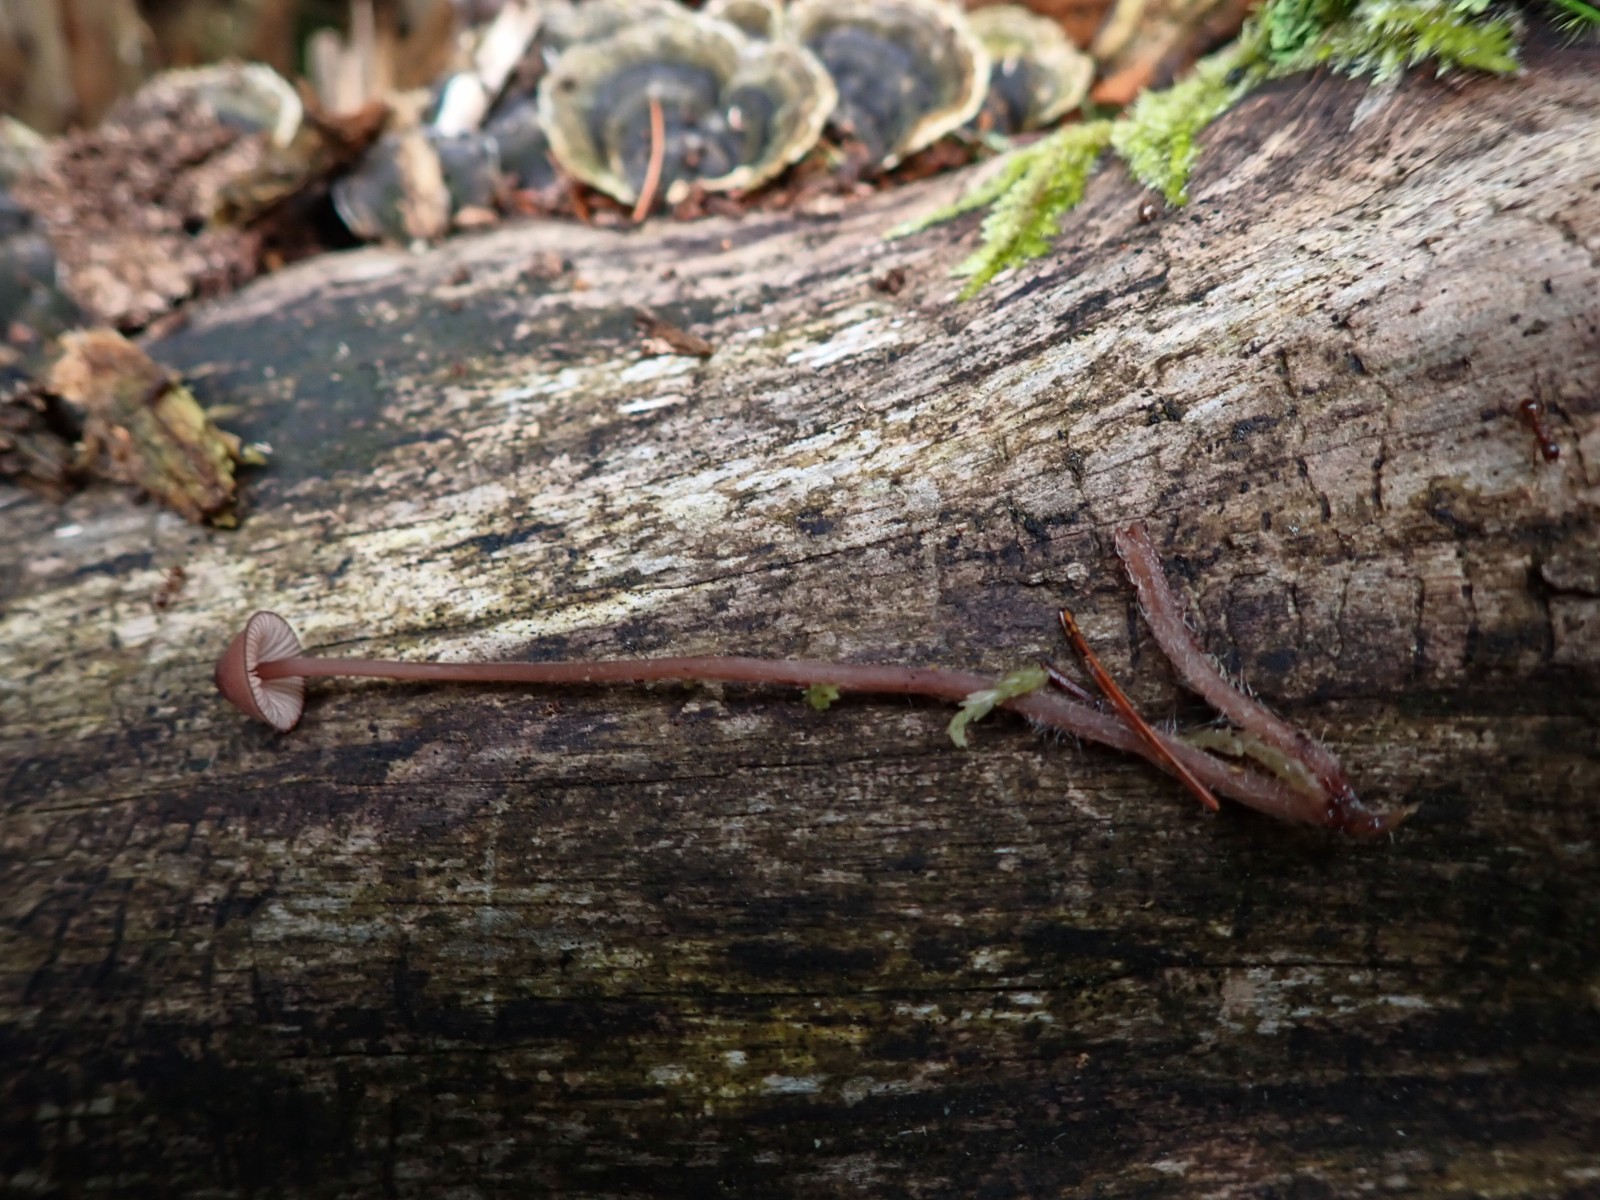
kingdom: Fungi
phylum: Basidiomycota
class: Agaricomycetes
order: Agaricales
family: Mycenaceae
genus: Mycena
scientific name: Mycena sanguinolenta
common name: rødmælket huesvamp
